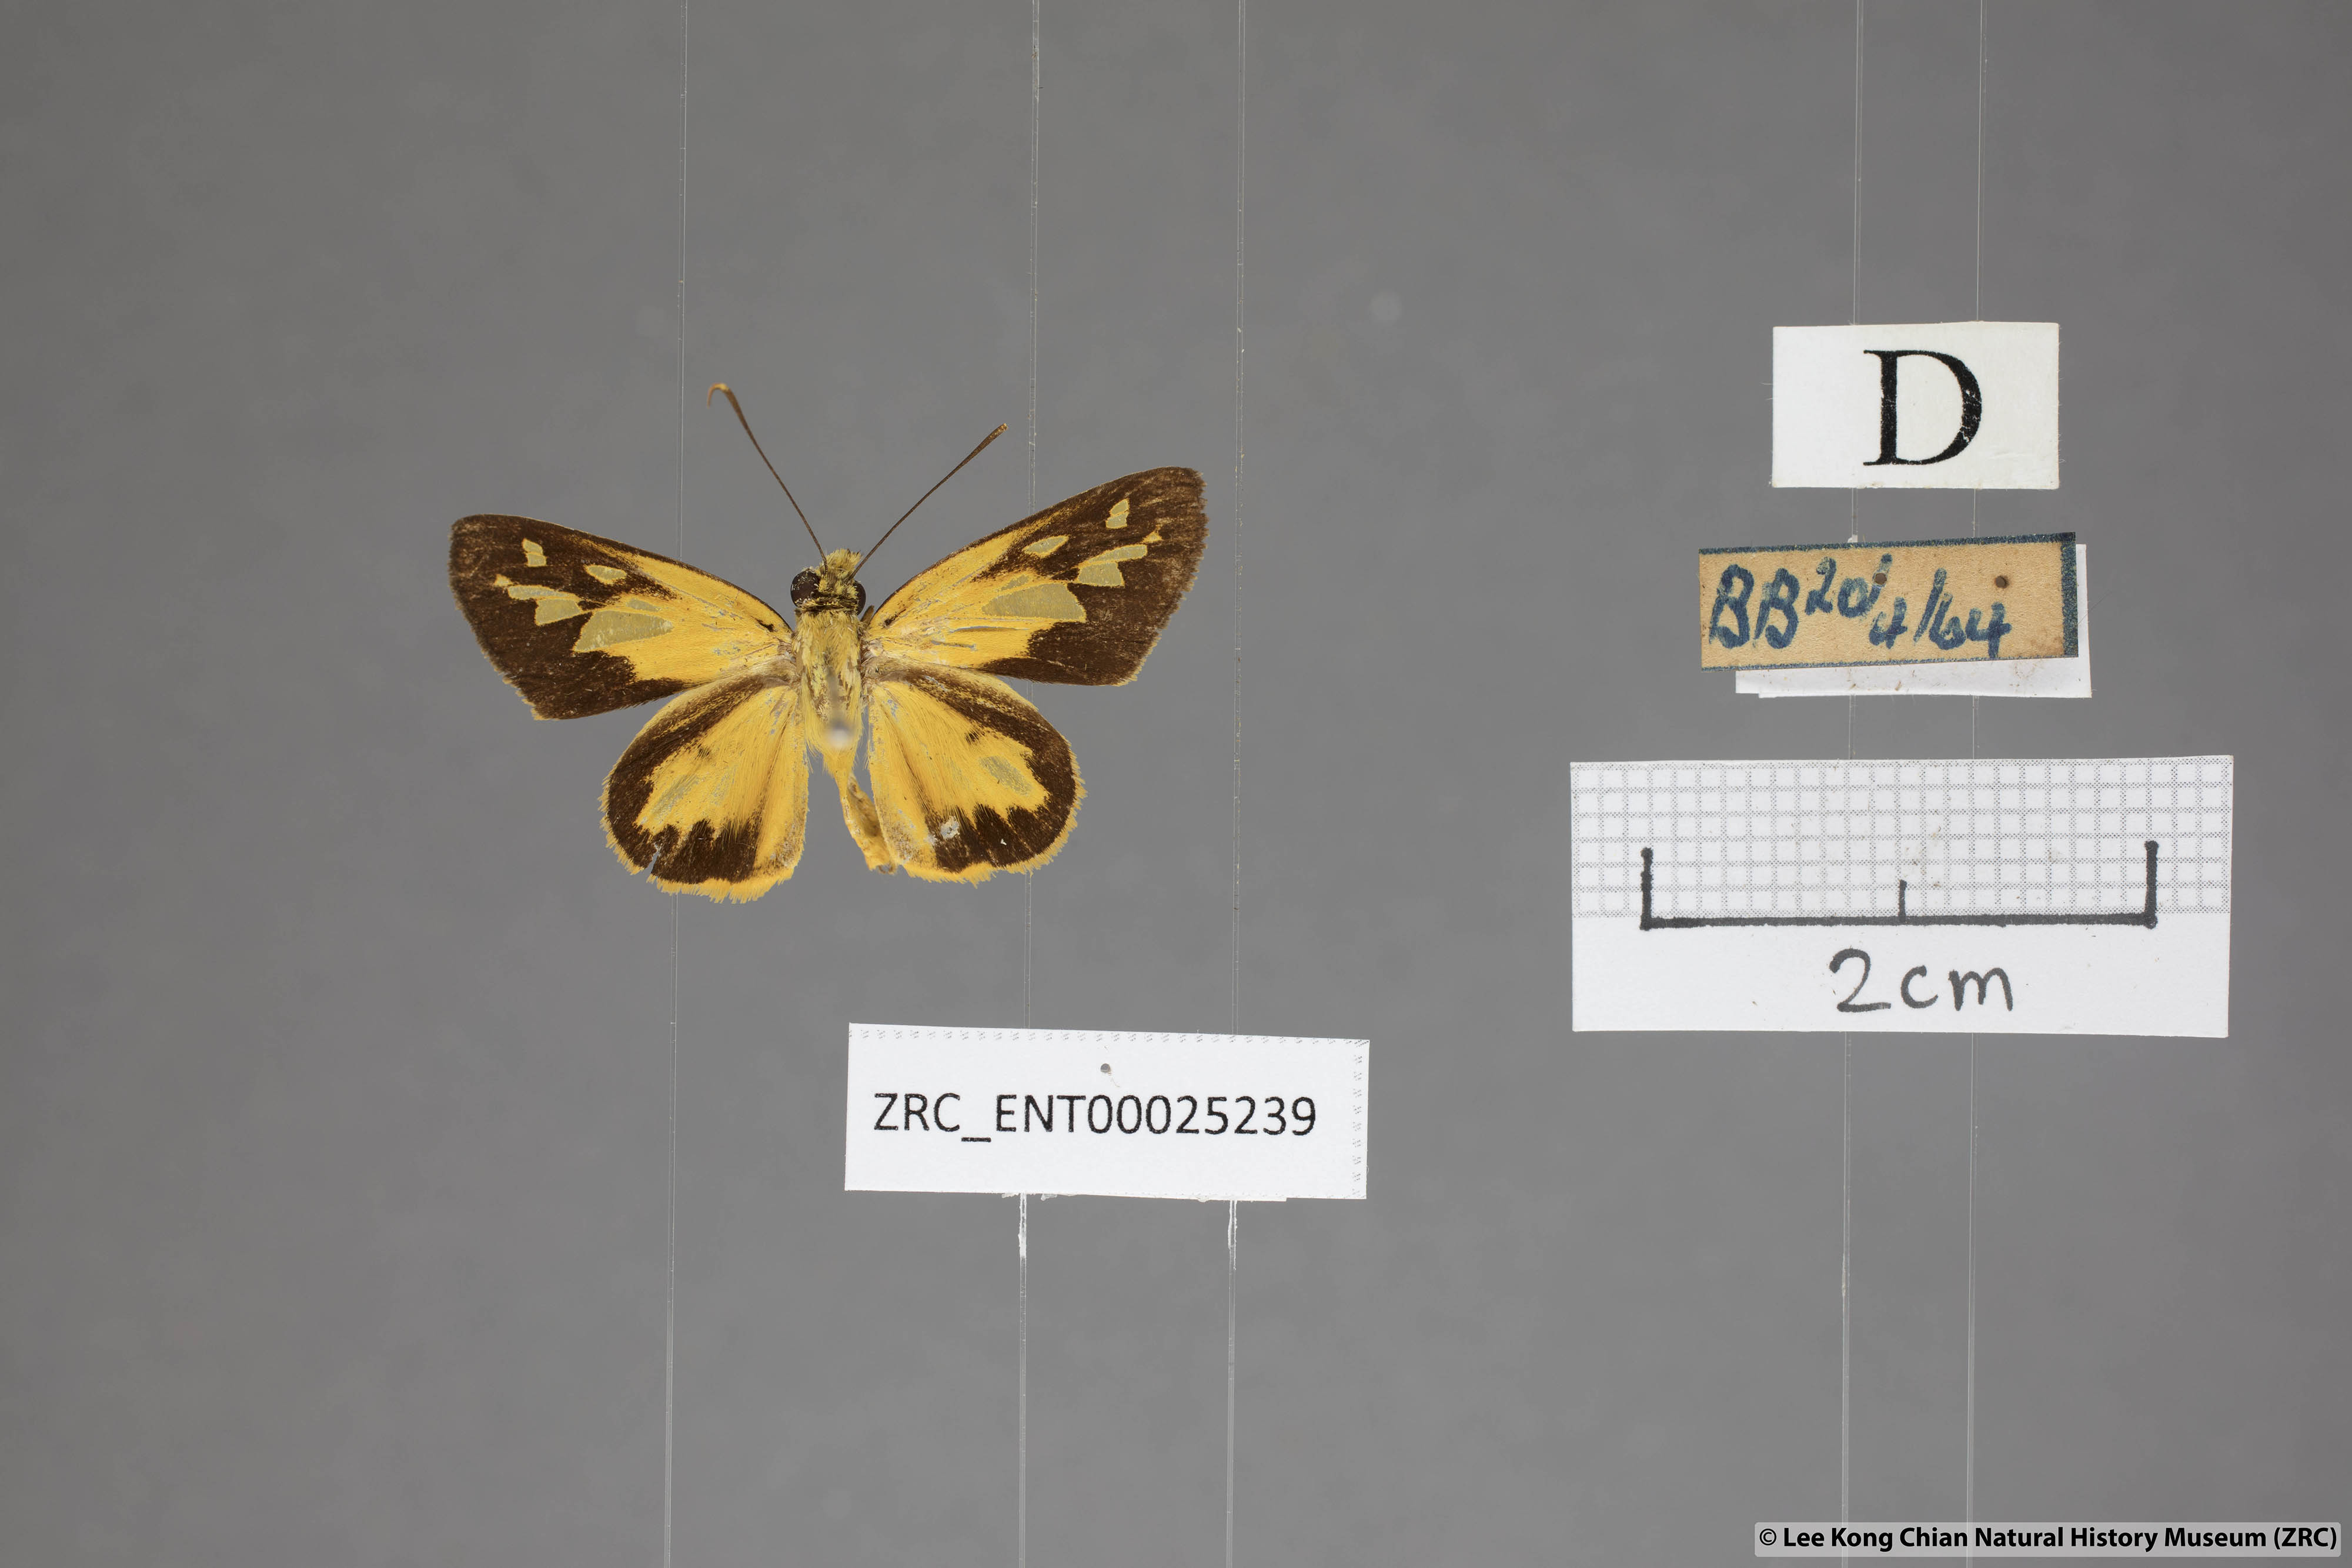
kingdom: Animalia
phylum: Arthropoda
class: Insecta
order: Lepidoptera
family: Hesperiidae
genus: Pyroneura
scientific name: Pyroneura helena
